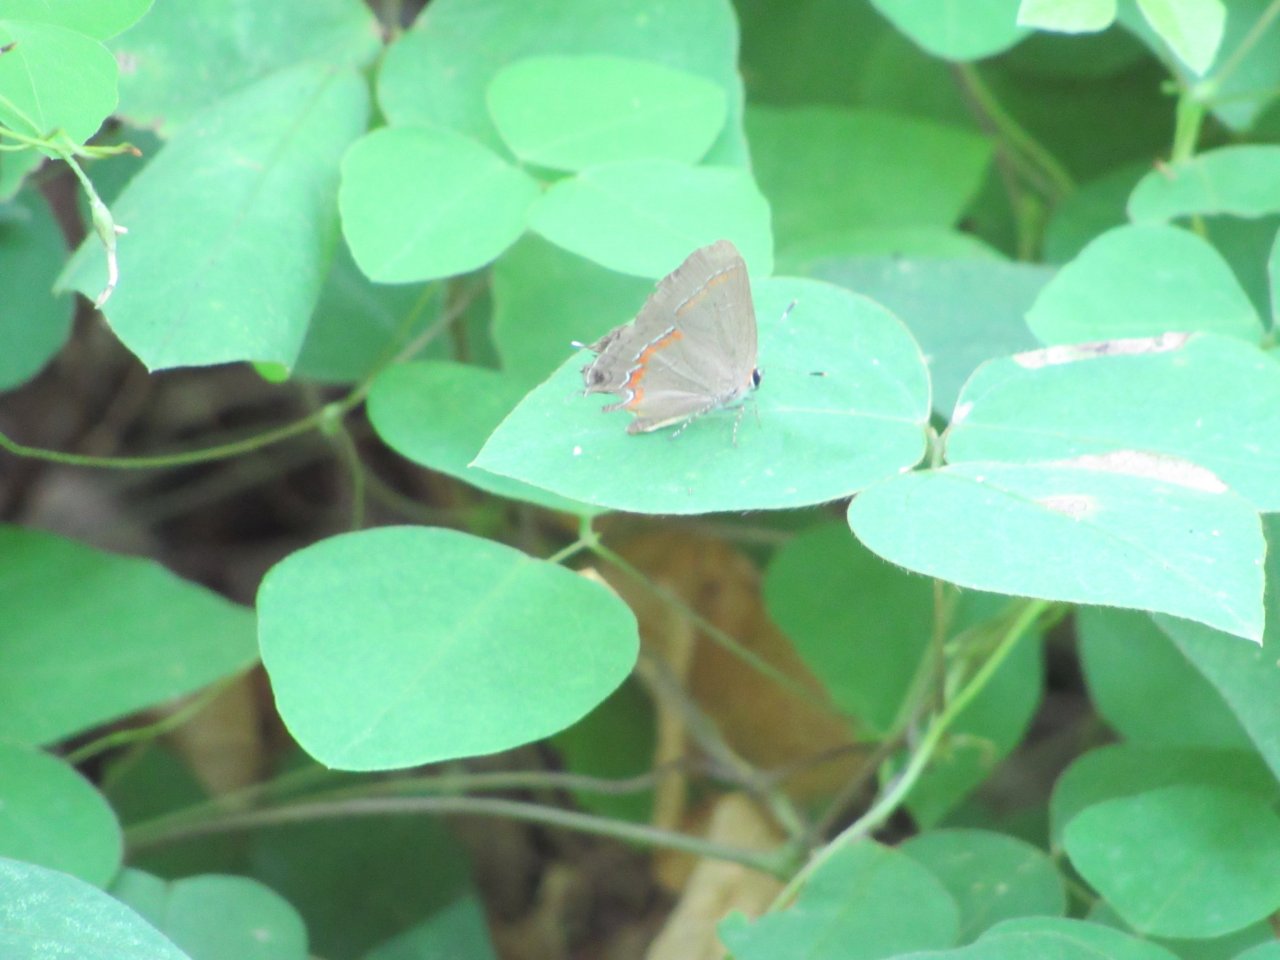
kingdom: Animalia
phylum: Arthropoda
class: Insecta
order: Lepidoptera
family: Lycaenidae
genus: Calycopis
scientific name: Calycopis cecrops
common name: Red-banded Hairstreak
